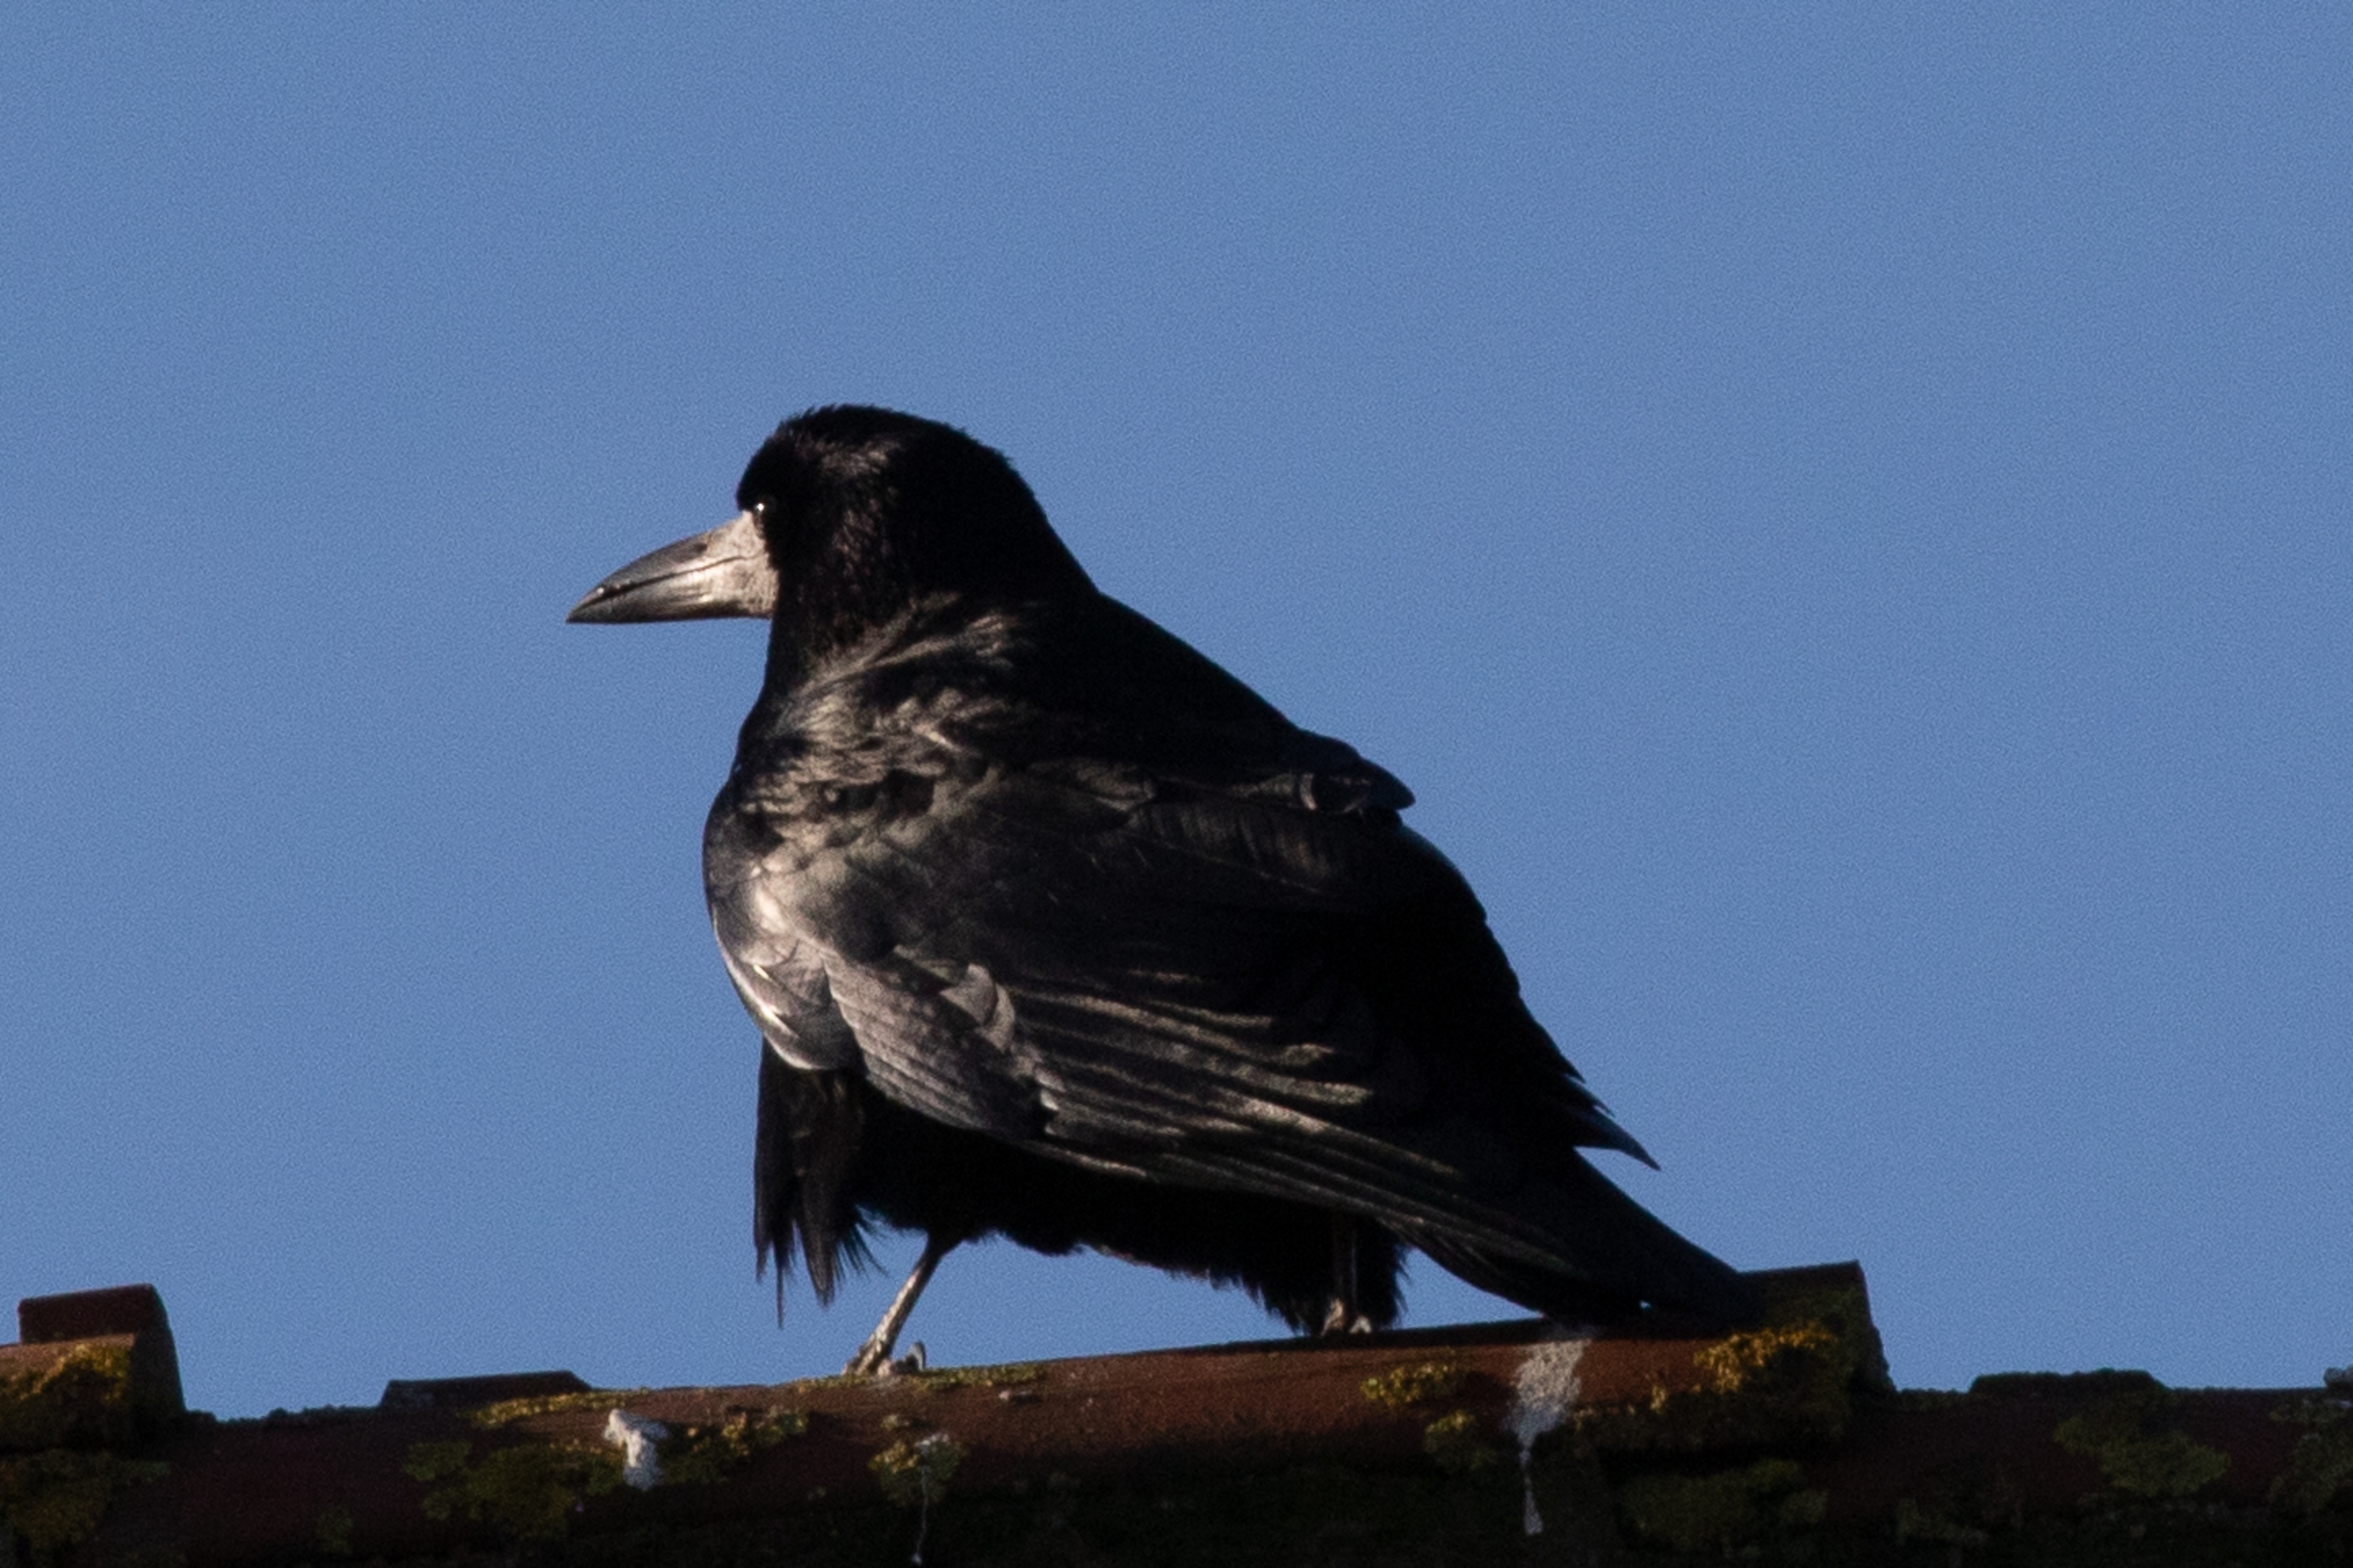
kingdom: Animalia
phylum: Chordata
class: Aves
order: Passeriformes
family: Corvidae
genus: Corvus
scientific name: Corvus frugilegus
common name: Råge
